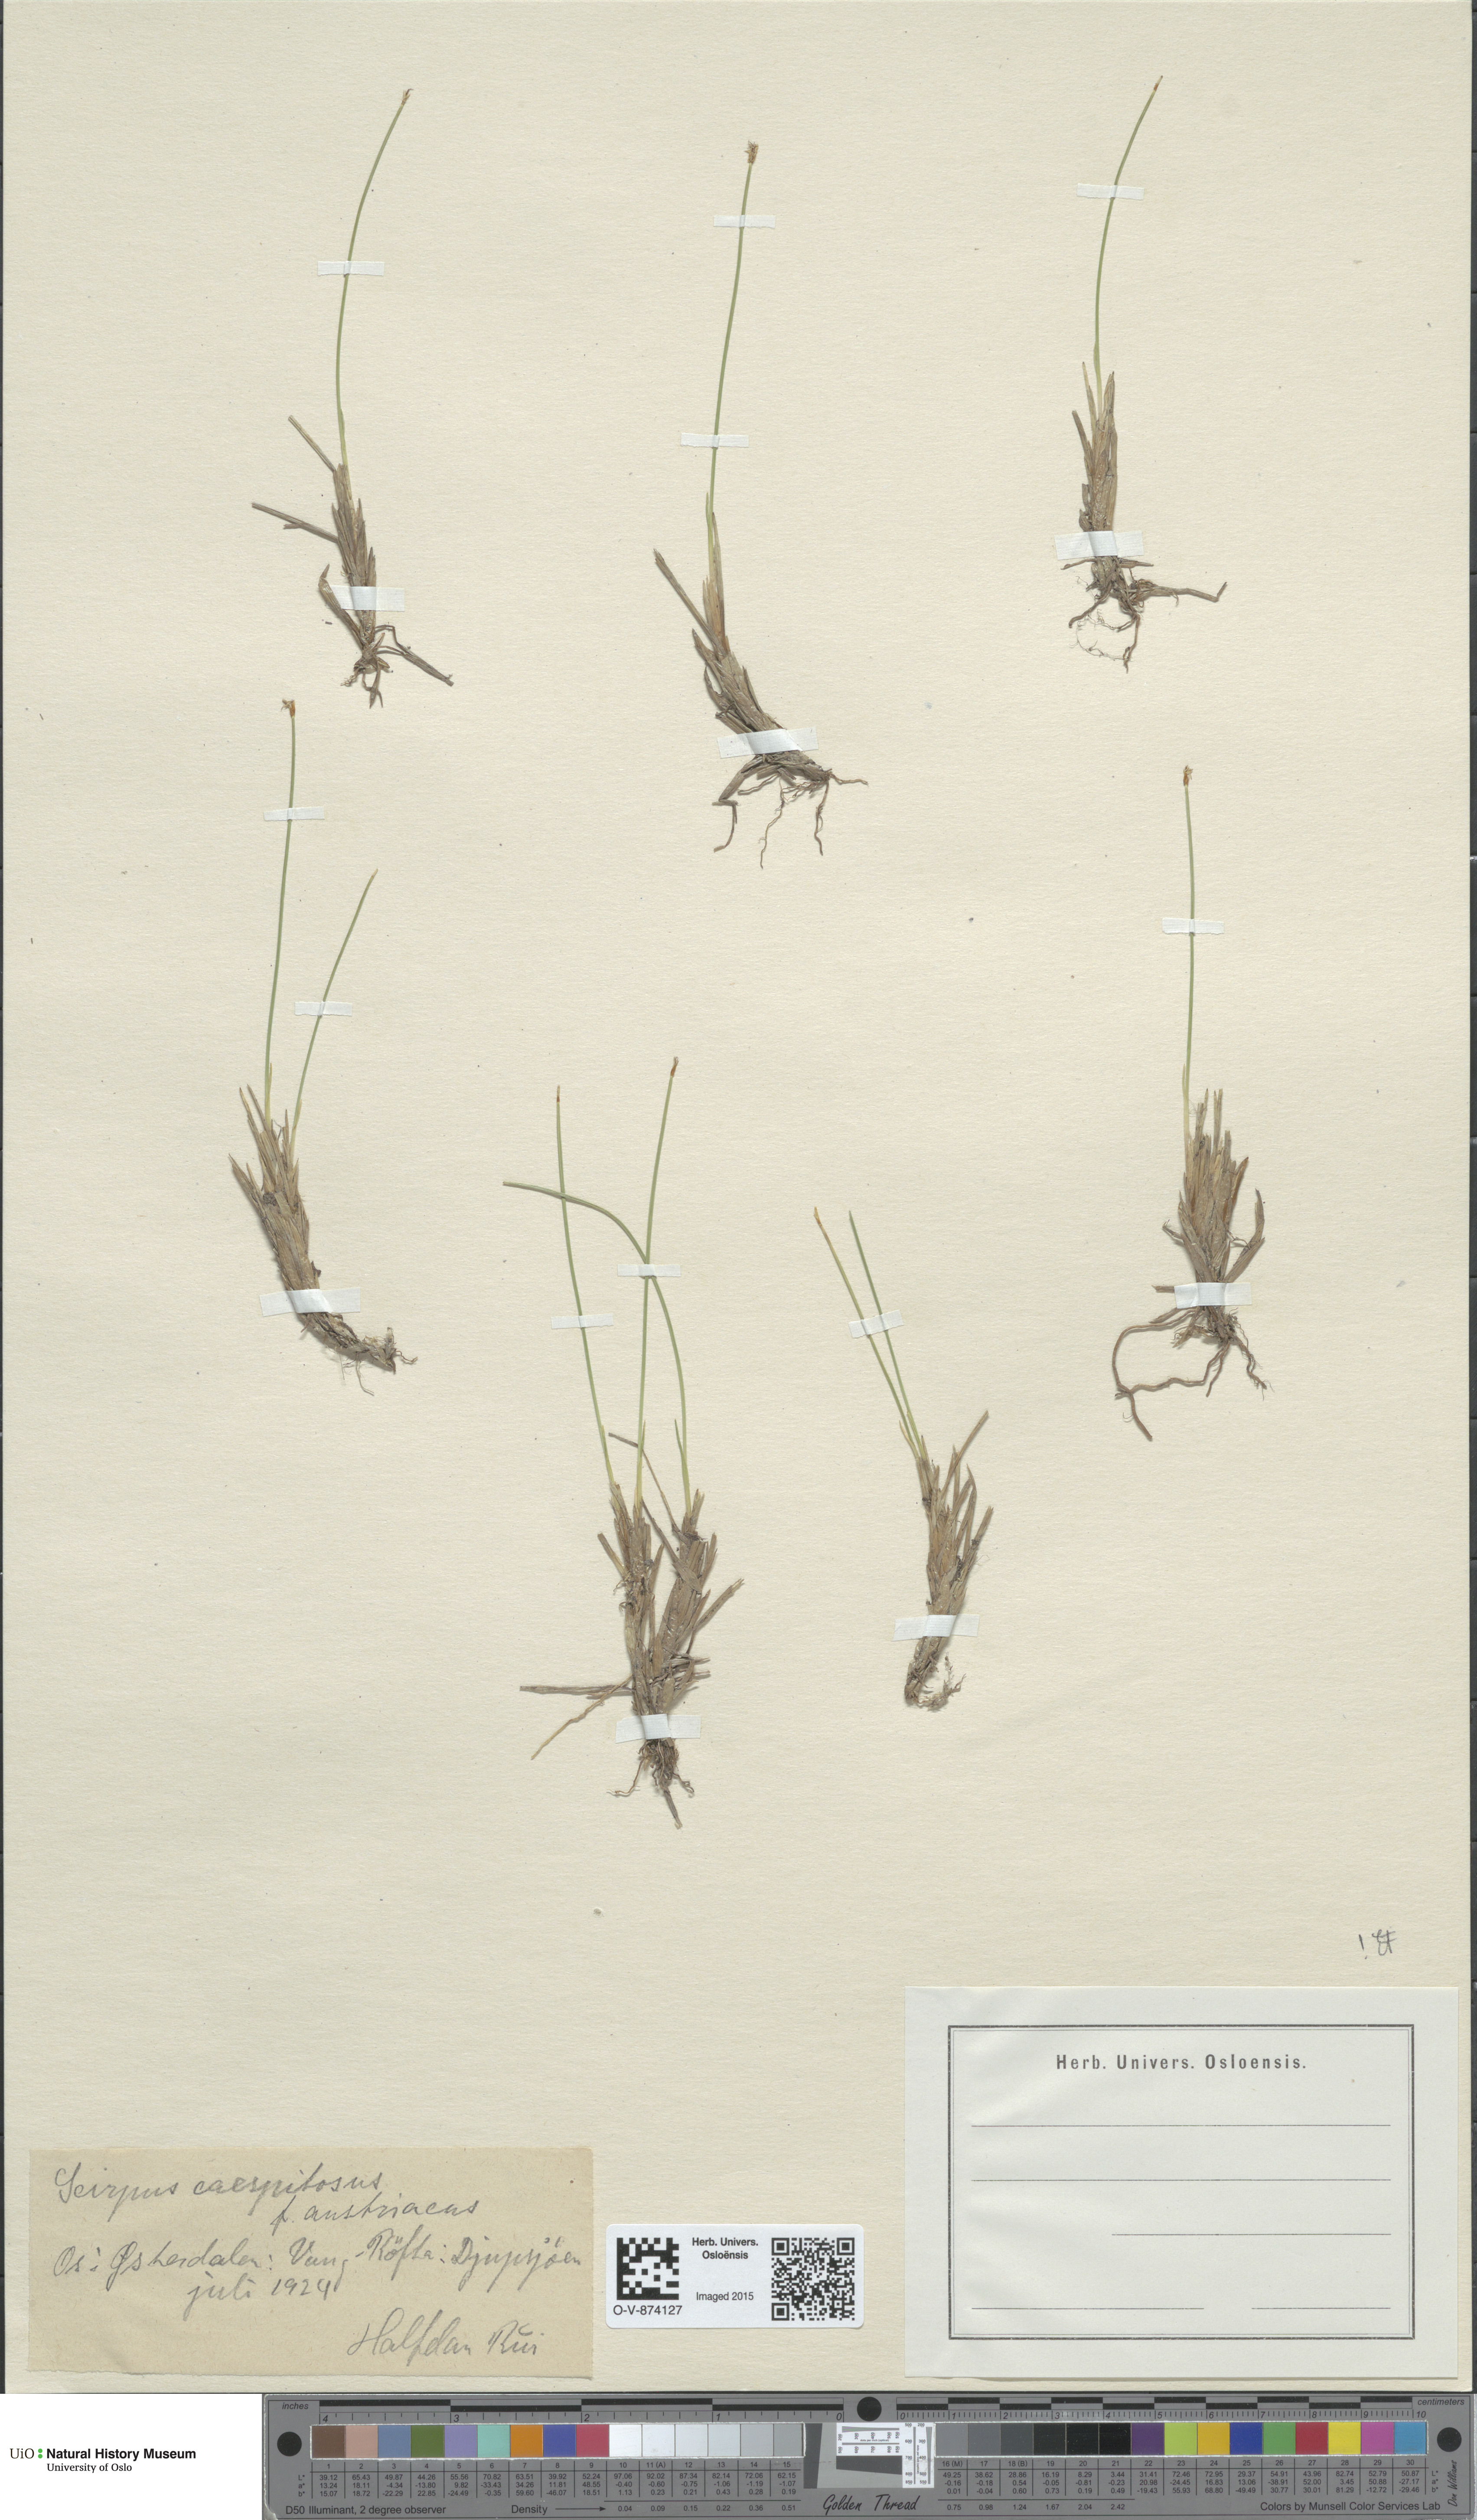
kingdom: Plantae
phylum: Tracheophyta
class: Liliopsida
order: Poales
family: Cyperaceae
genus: Trichophorum
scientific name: Trichophorum cespitosum
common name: Cespitose bulrush
